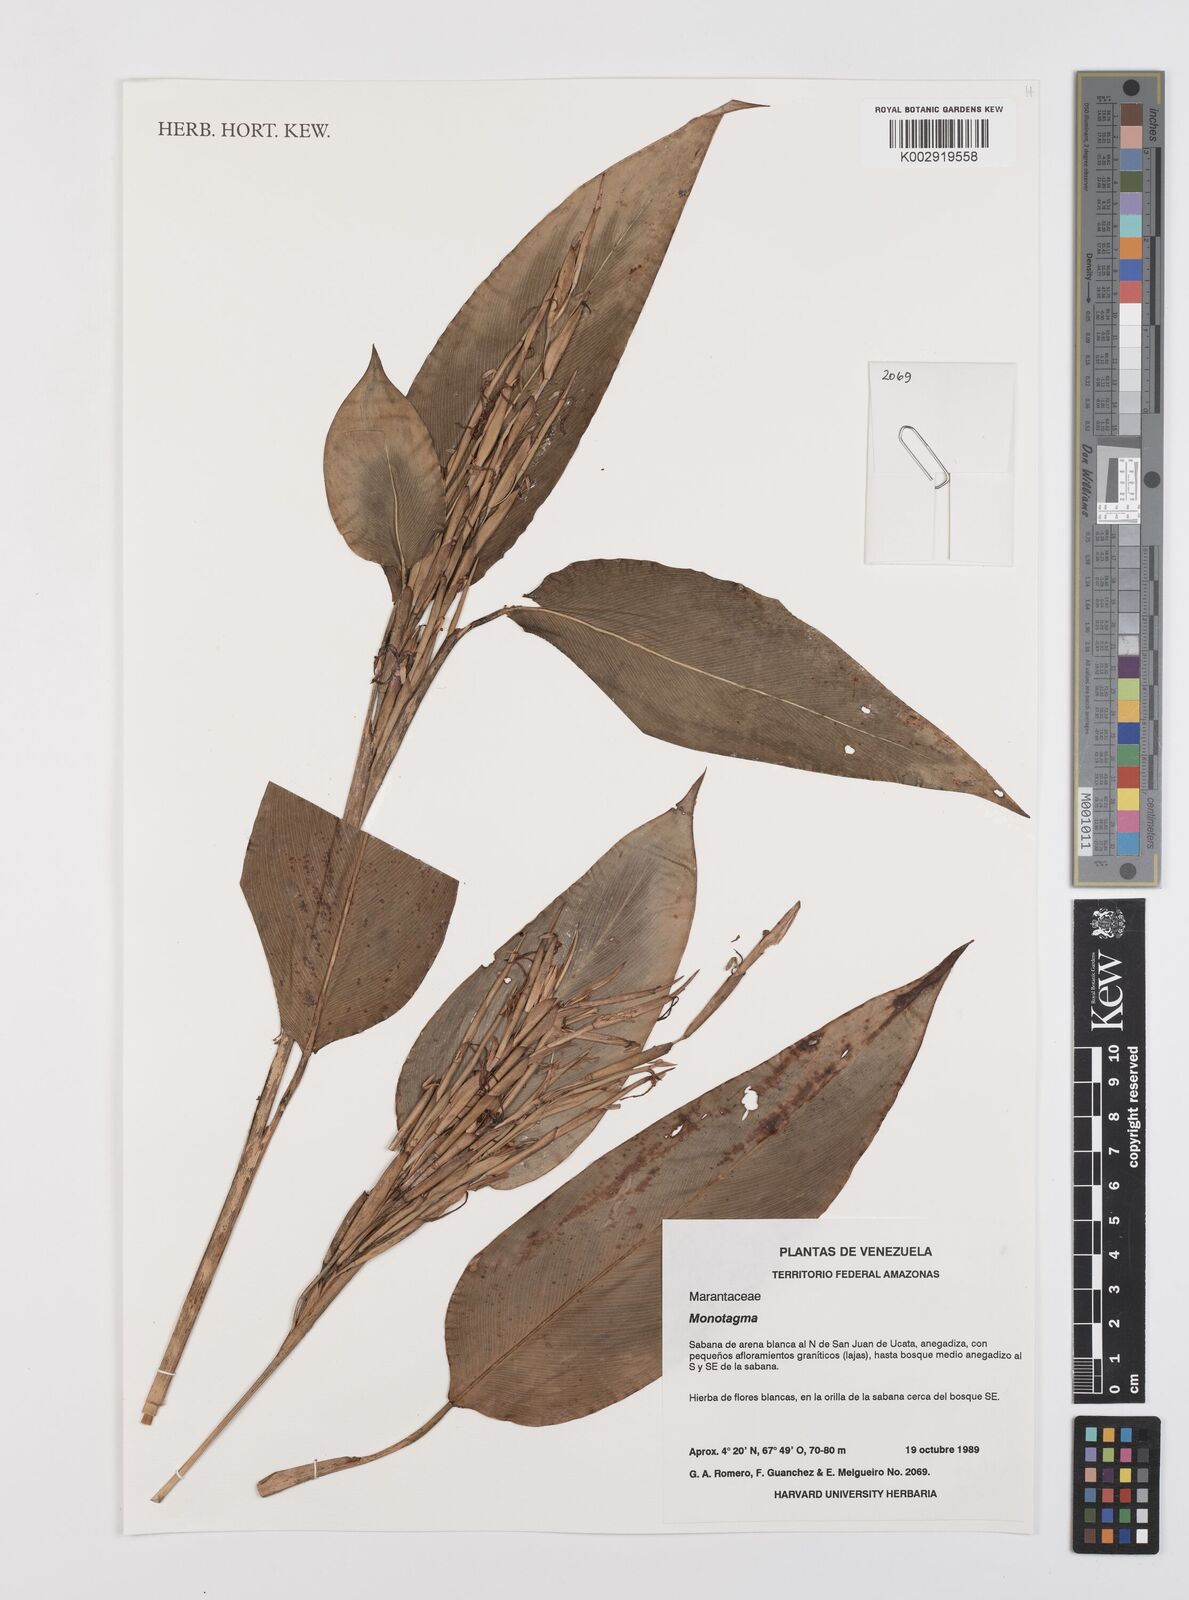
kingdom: Plantae
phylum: Tracheophyta
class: Liliopsida
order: Zingiberales
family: Marantaceae
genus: Monotagma
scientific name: Monotagma
